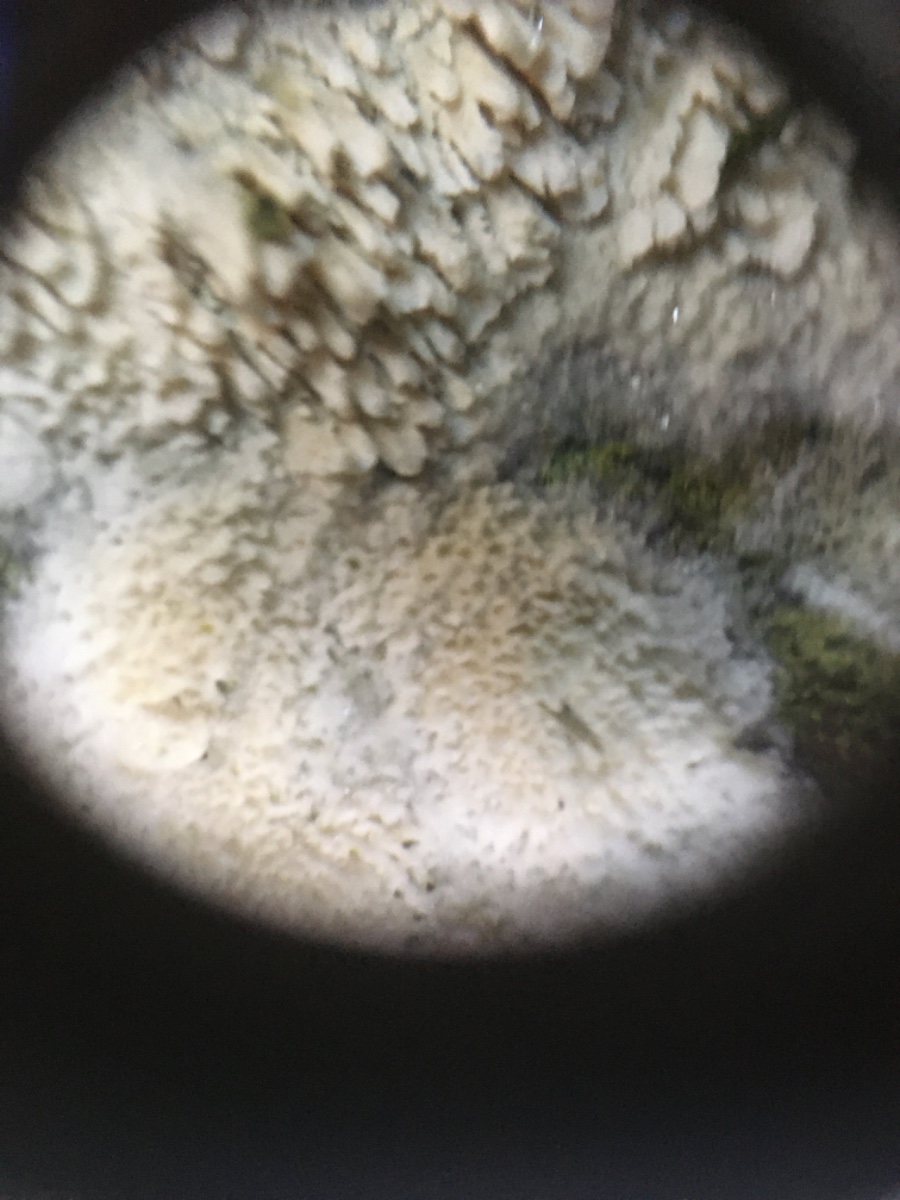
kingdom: Fungi
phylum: Basidiomycota
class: Agaricomycetes
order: Hymenochaetales
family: Schizoporaceae
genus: Xylodon
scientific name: Xylodon
